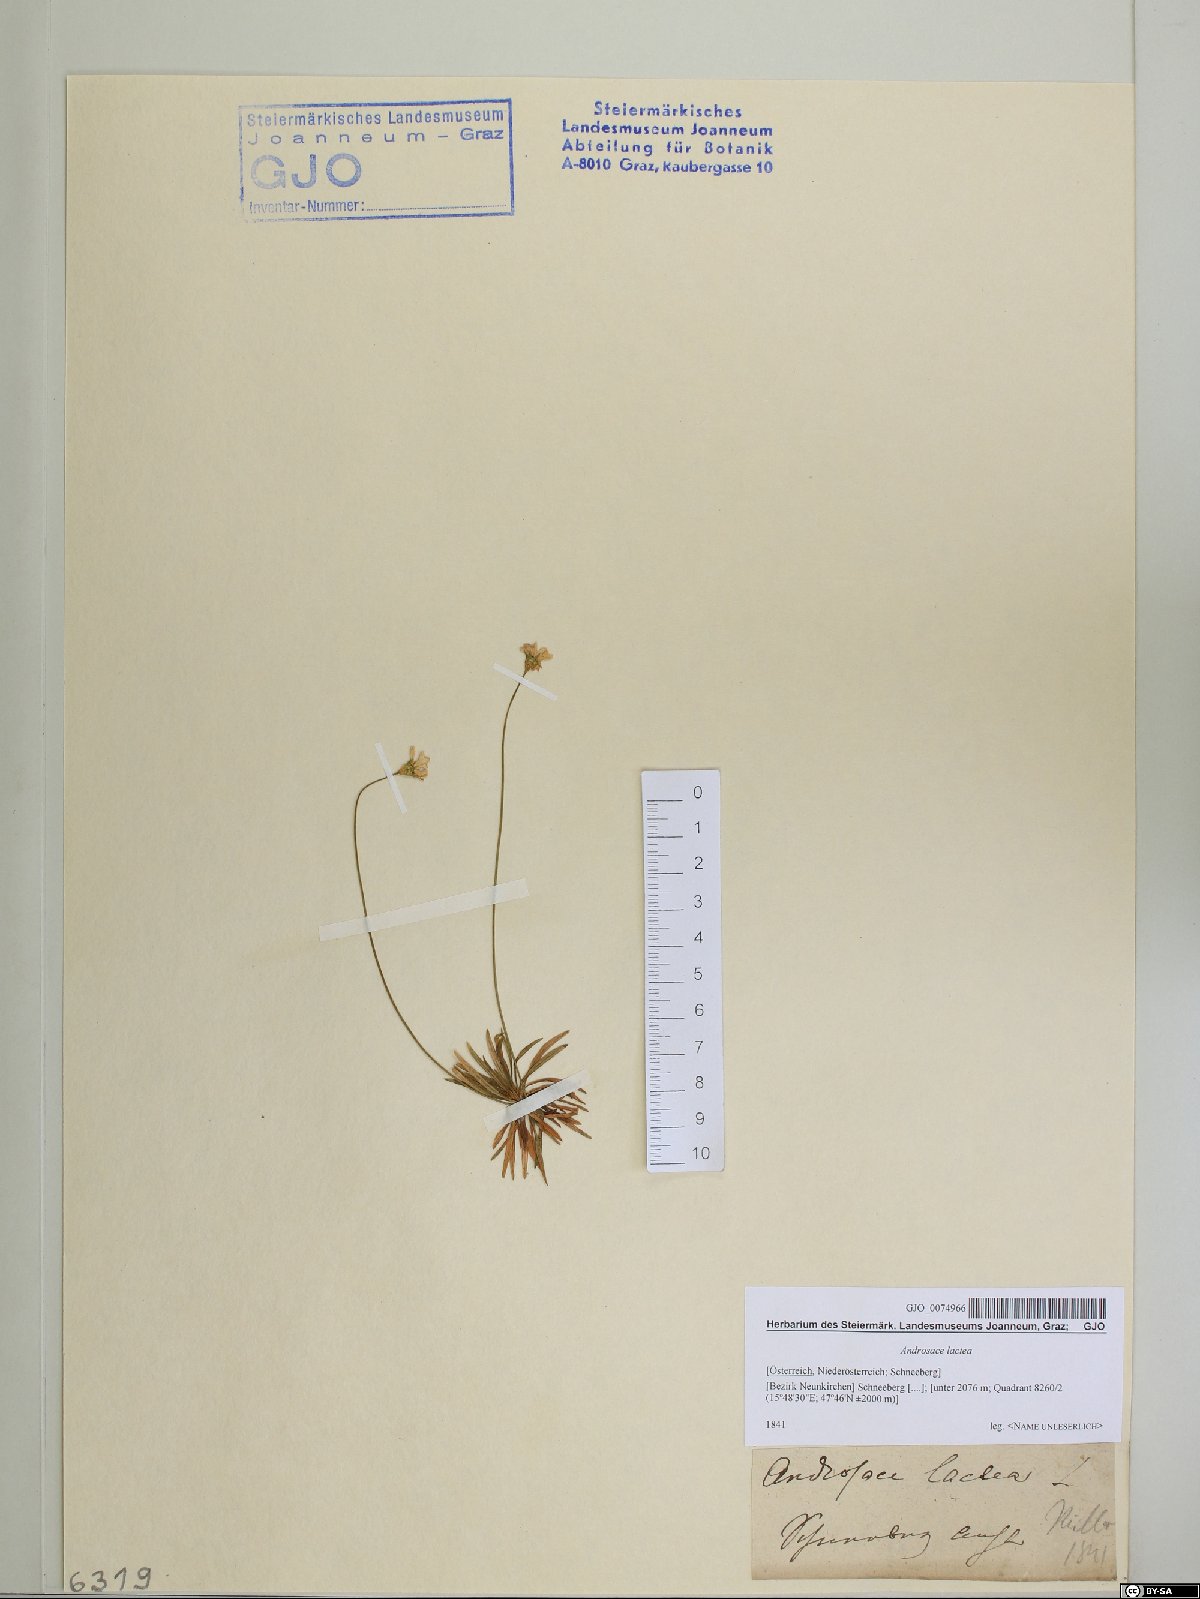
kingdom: Plantae
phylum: Tracheophyta
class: Magnoliopsida
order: Ericales
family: Primulaceae
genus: Androsace
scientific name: Androsace lactea
